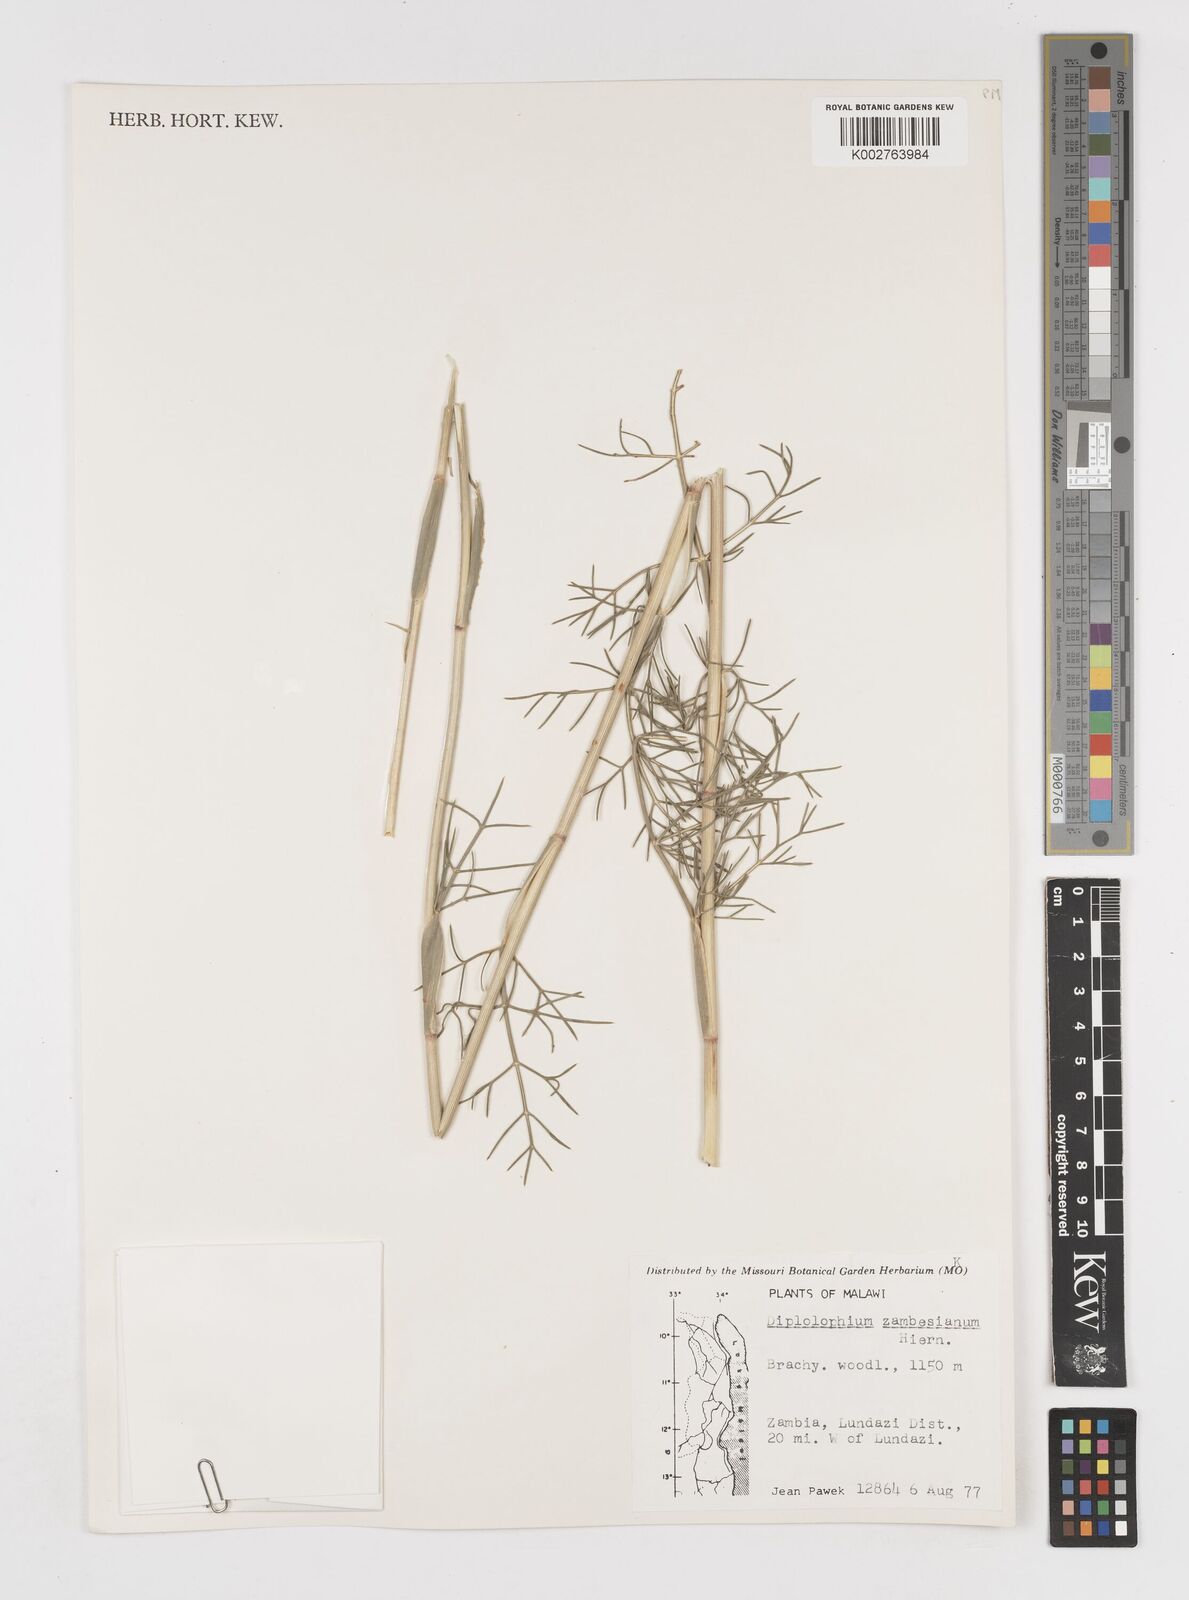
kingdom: Plantae
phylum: Tracheophyta
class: Magnoliopsida
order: Apiales
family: Apiaceae
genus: Diplolophium
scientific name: Diplolophium zambesianum
